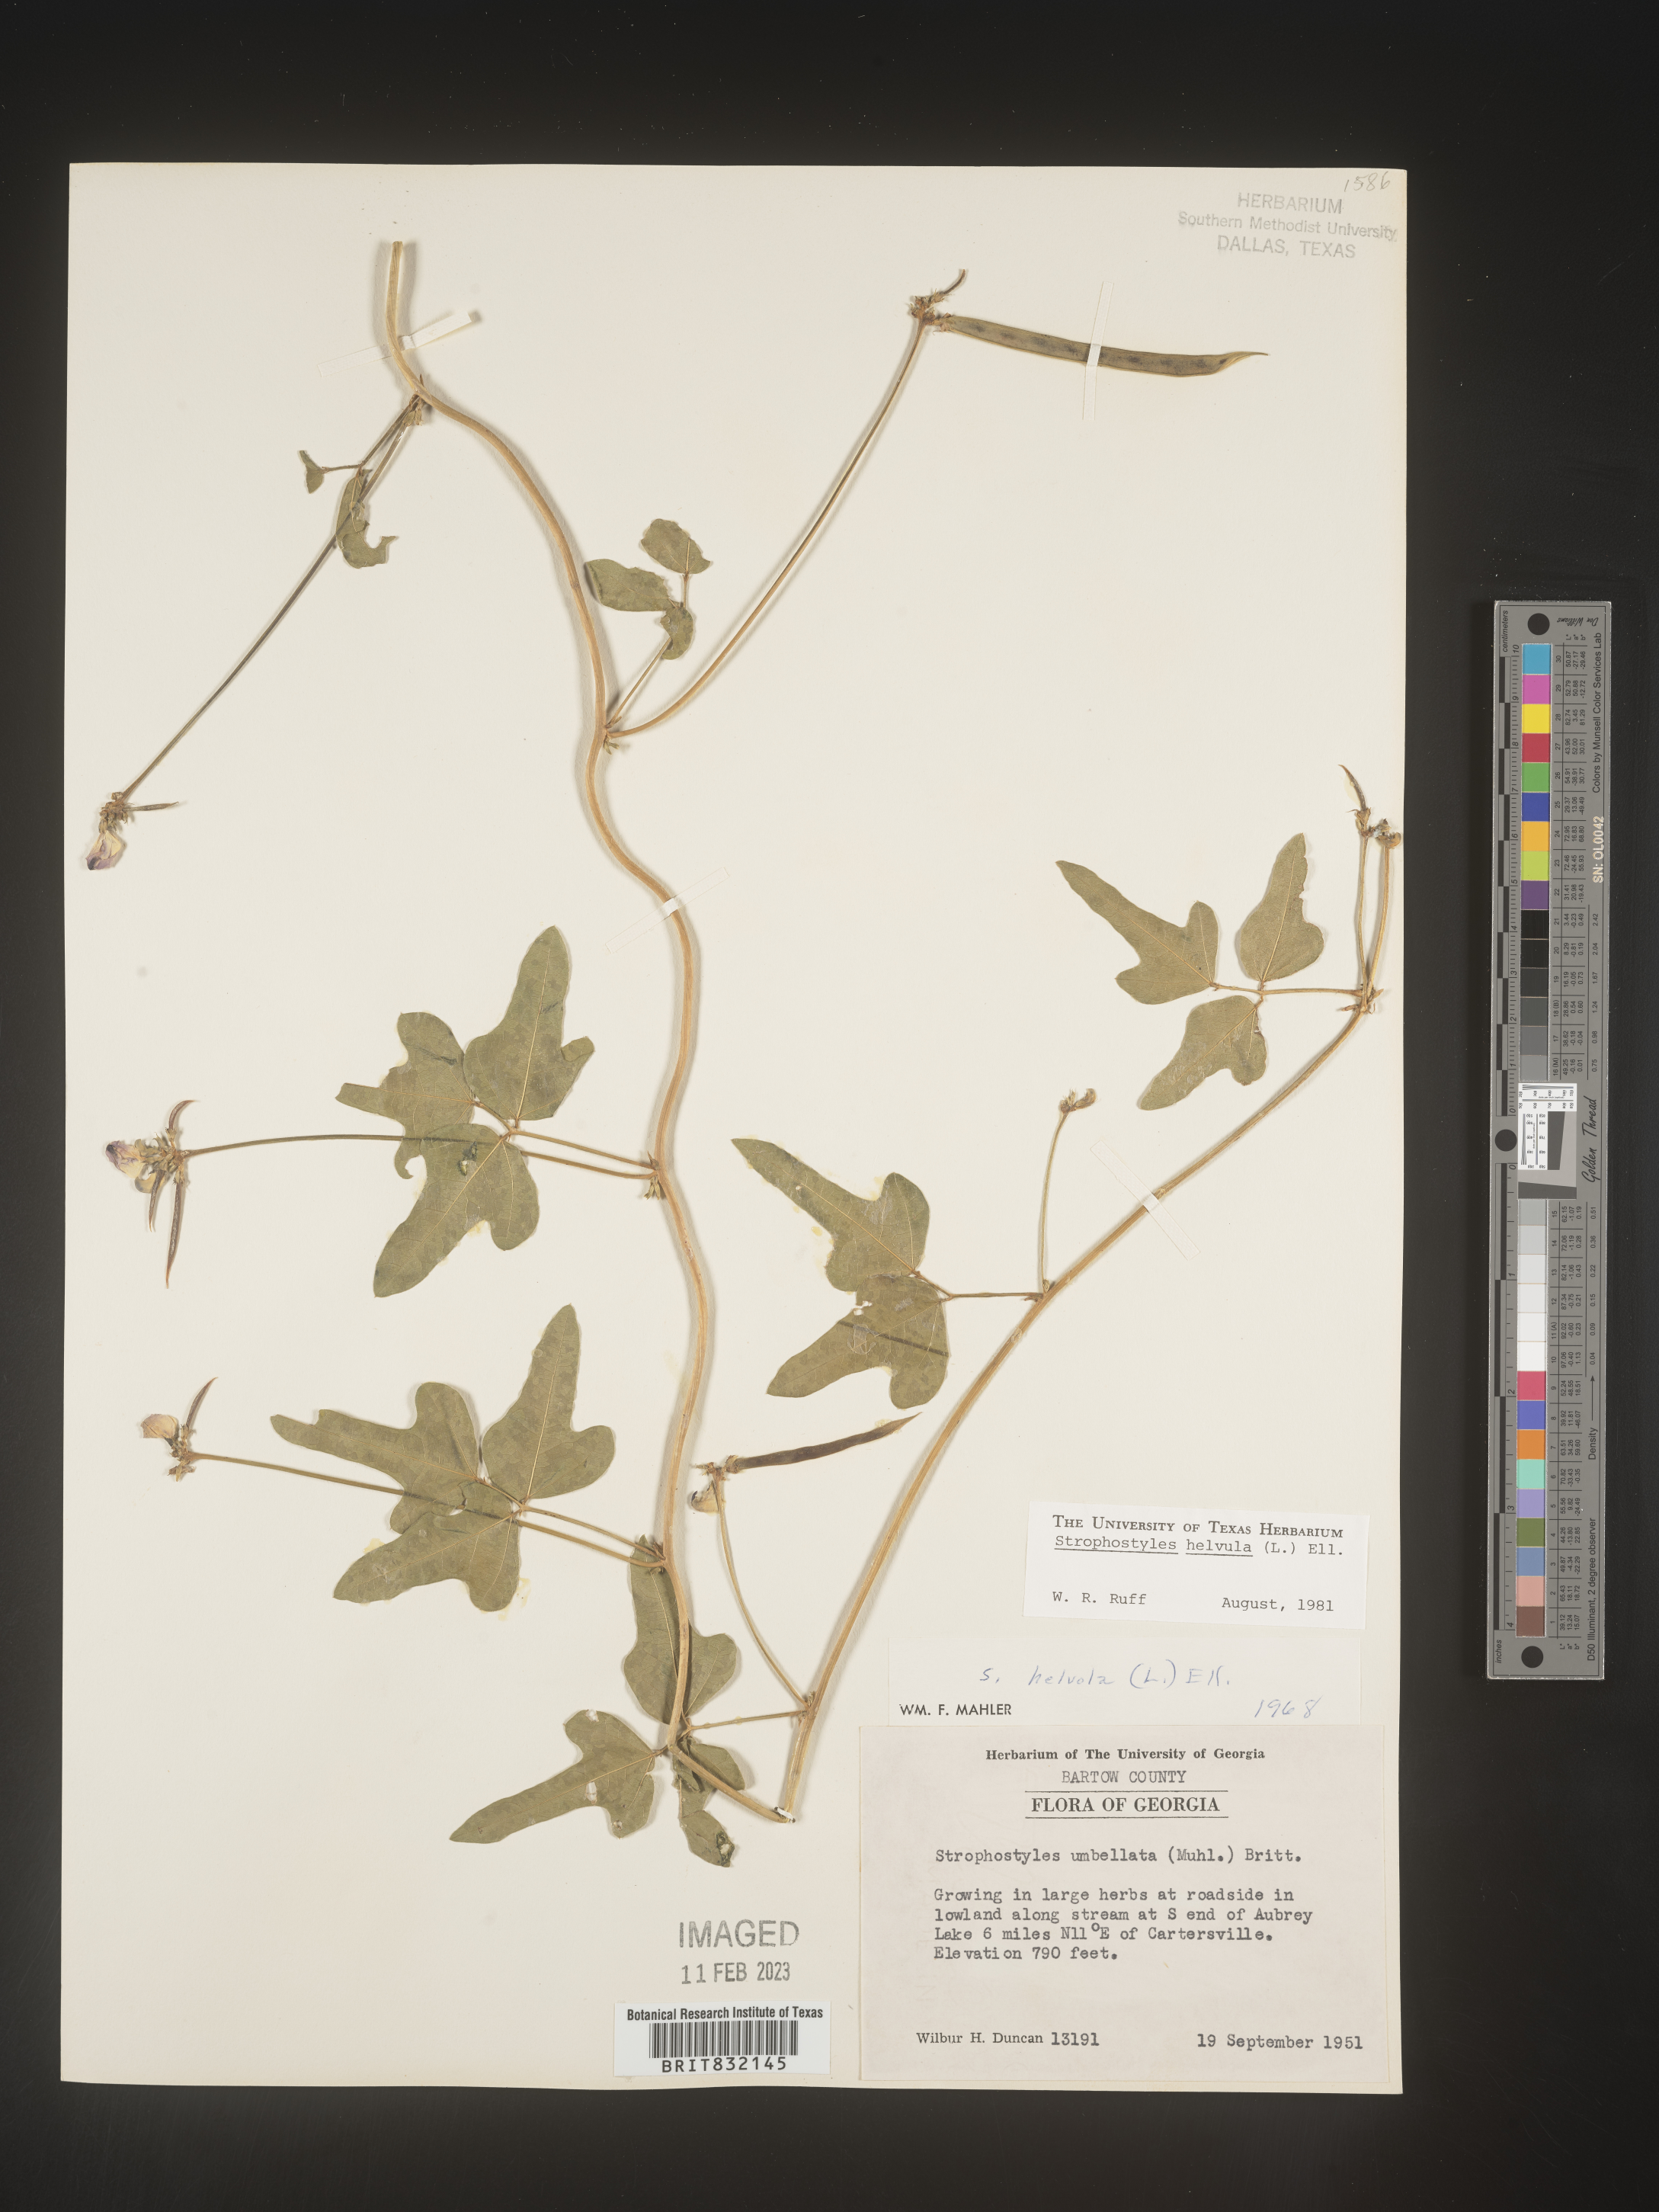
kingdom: Plantae
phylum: Tracheophyta
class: Magnoliopsida
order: Fabales
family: Fabaceae
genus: Strophostyles
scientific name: Strophostyles helvola
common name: Trailing wild bean
